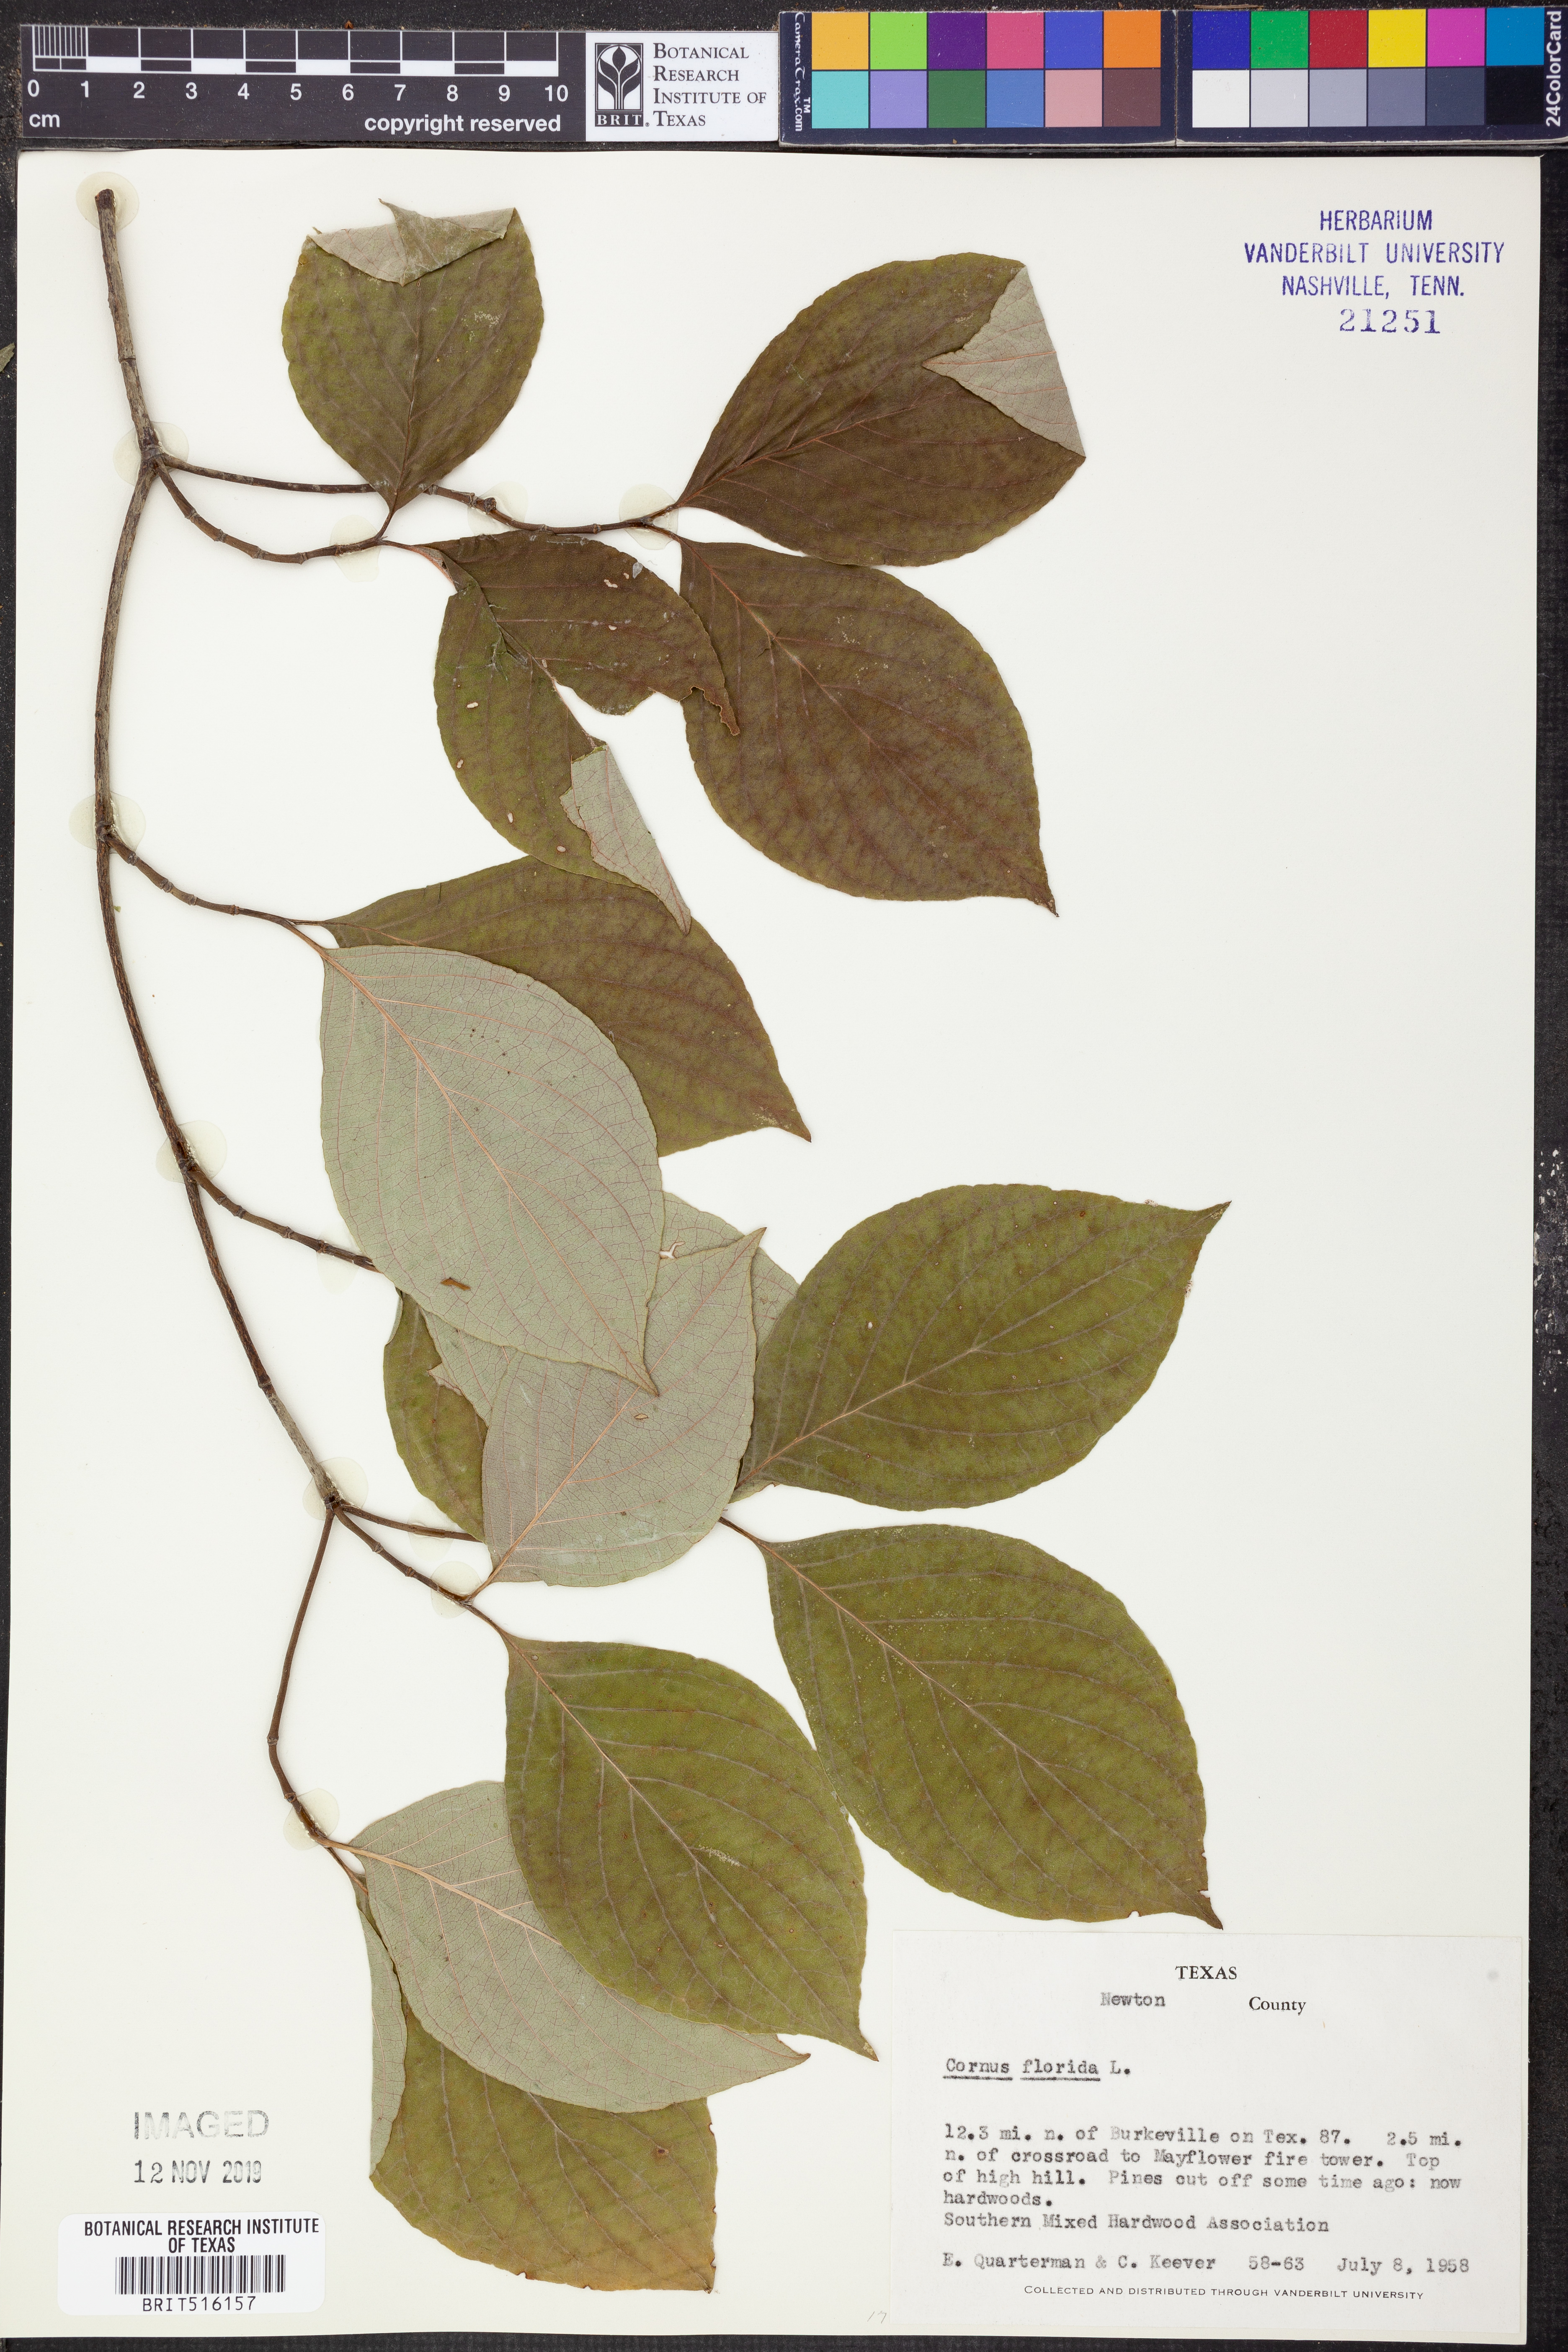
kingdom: Plantae
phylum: Tracheophyta
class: Magnoliopsida
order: Cornales
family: Cornaceae
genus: Cornus
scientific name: Cornus florida
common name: Flowering dogwood
